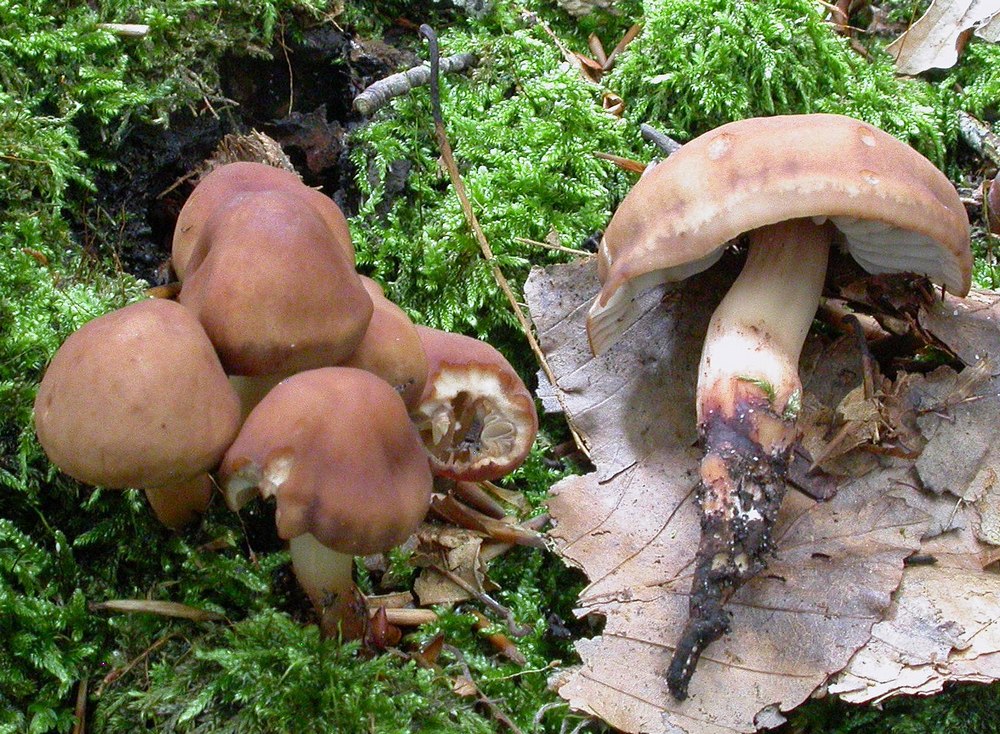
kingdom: Fungi
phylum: Basidiomycota
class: Agaricomycetes
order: Agaricales
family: Omphalotaceae
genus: Gymnopus
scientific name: Gymnopus fusipes
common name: tenstokket fladhat
